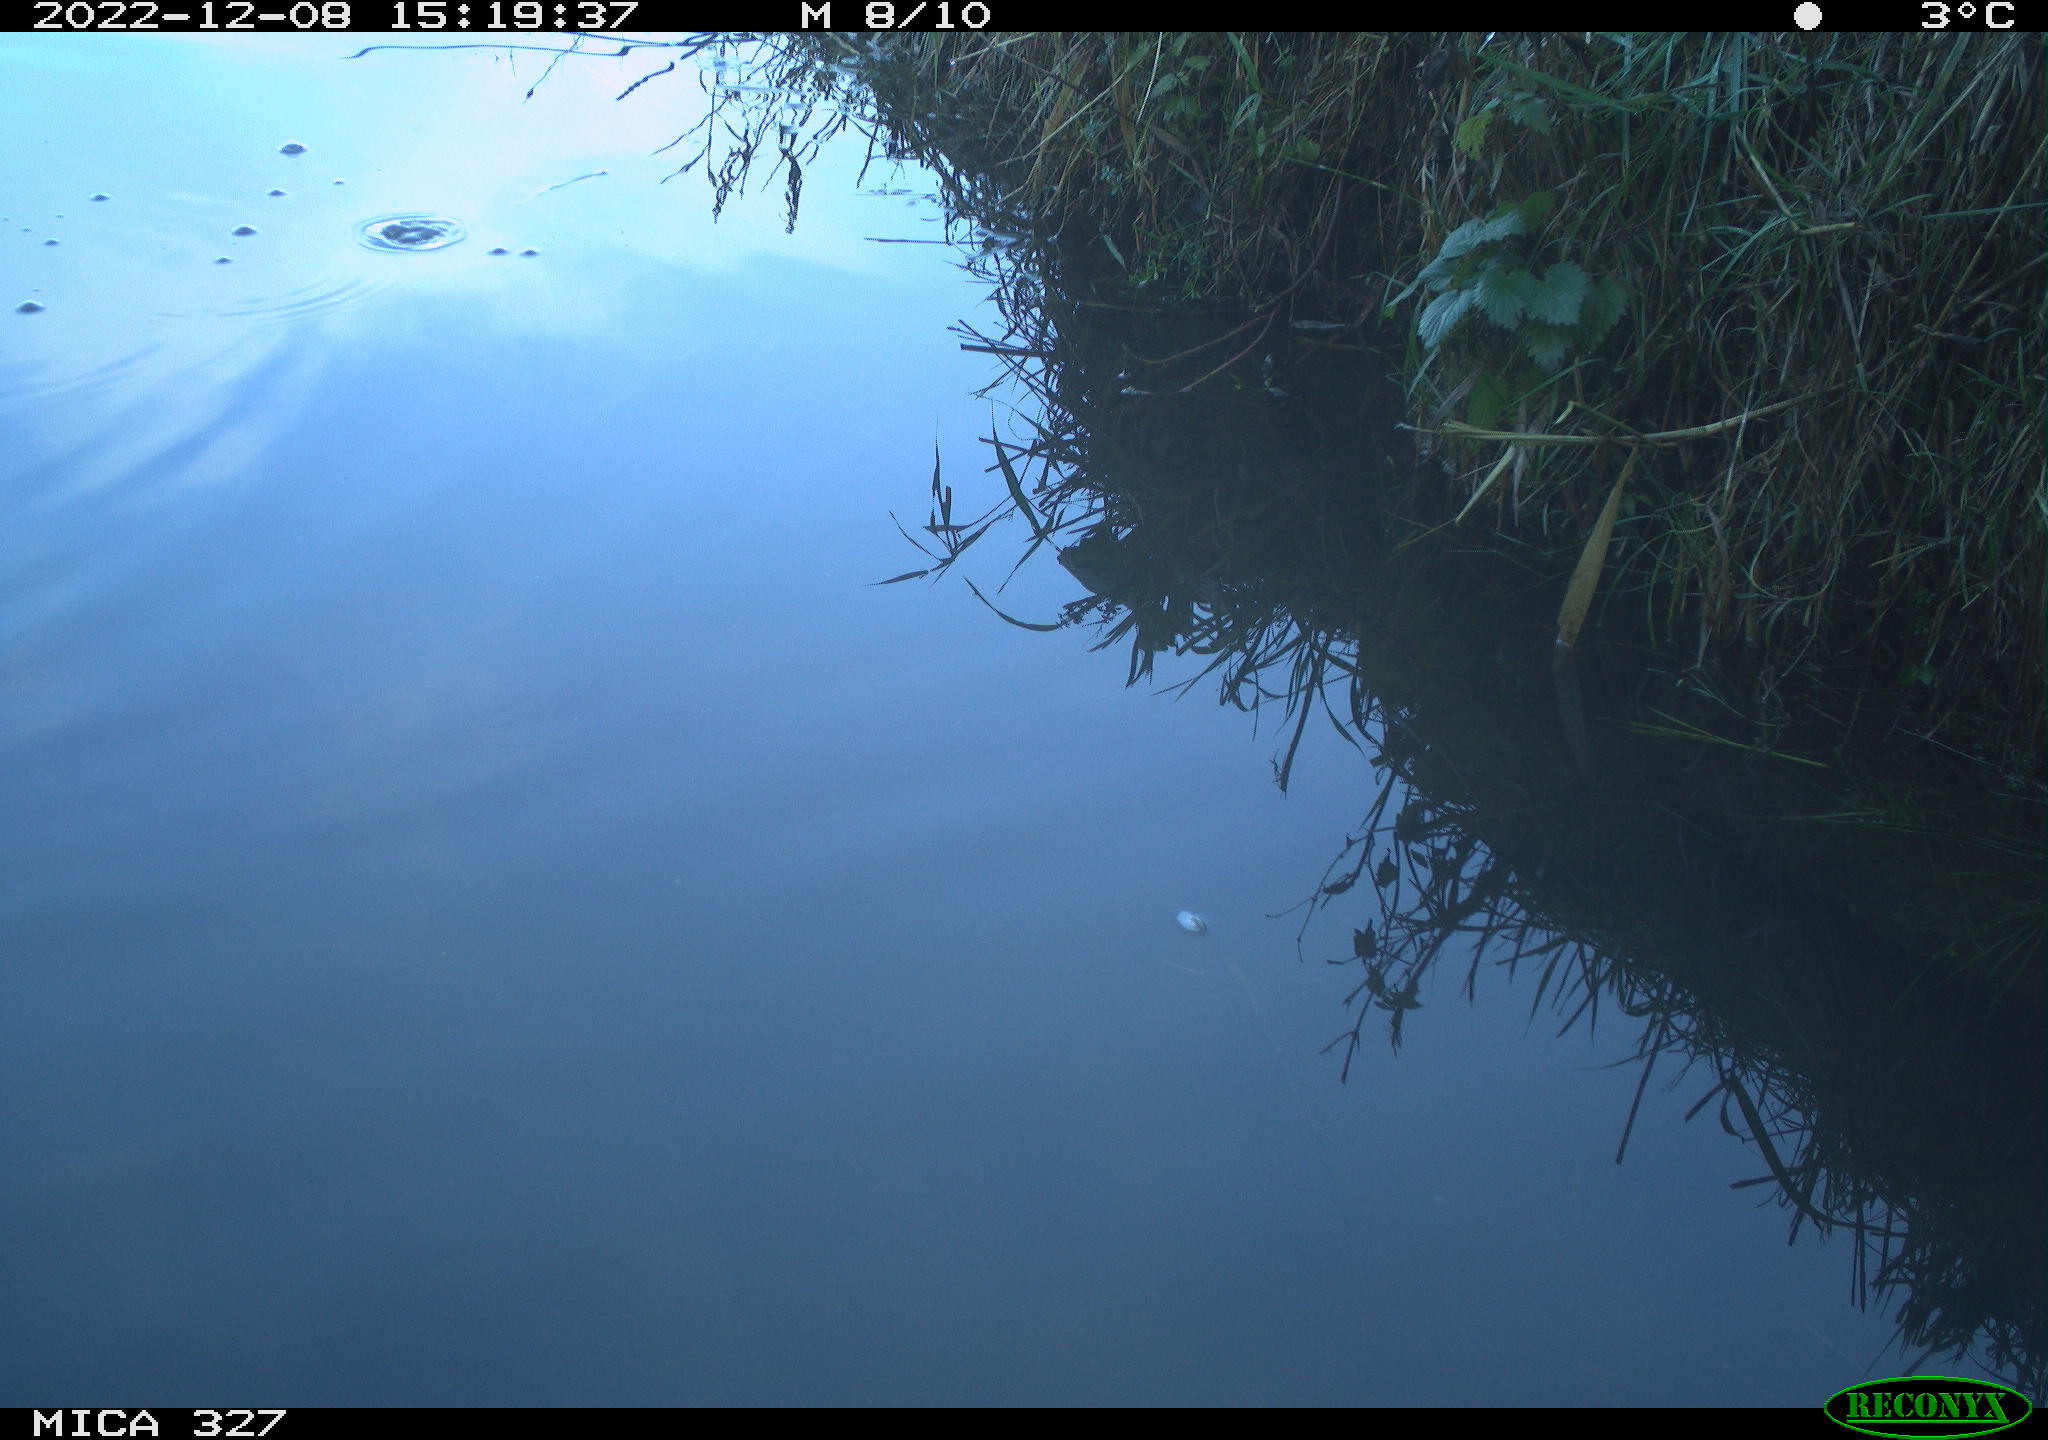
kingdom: Animalia
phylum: Chordata
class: Aves
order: Pelecaniformes
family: Ardeidae
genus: Ardea
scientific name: Ardea alba
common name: Great egret
